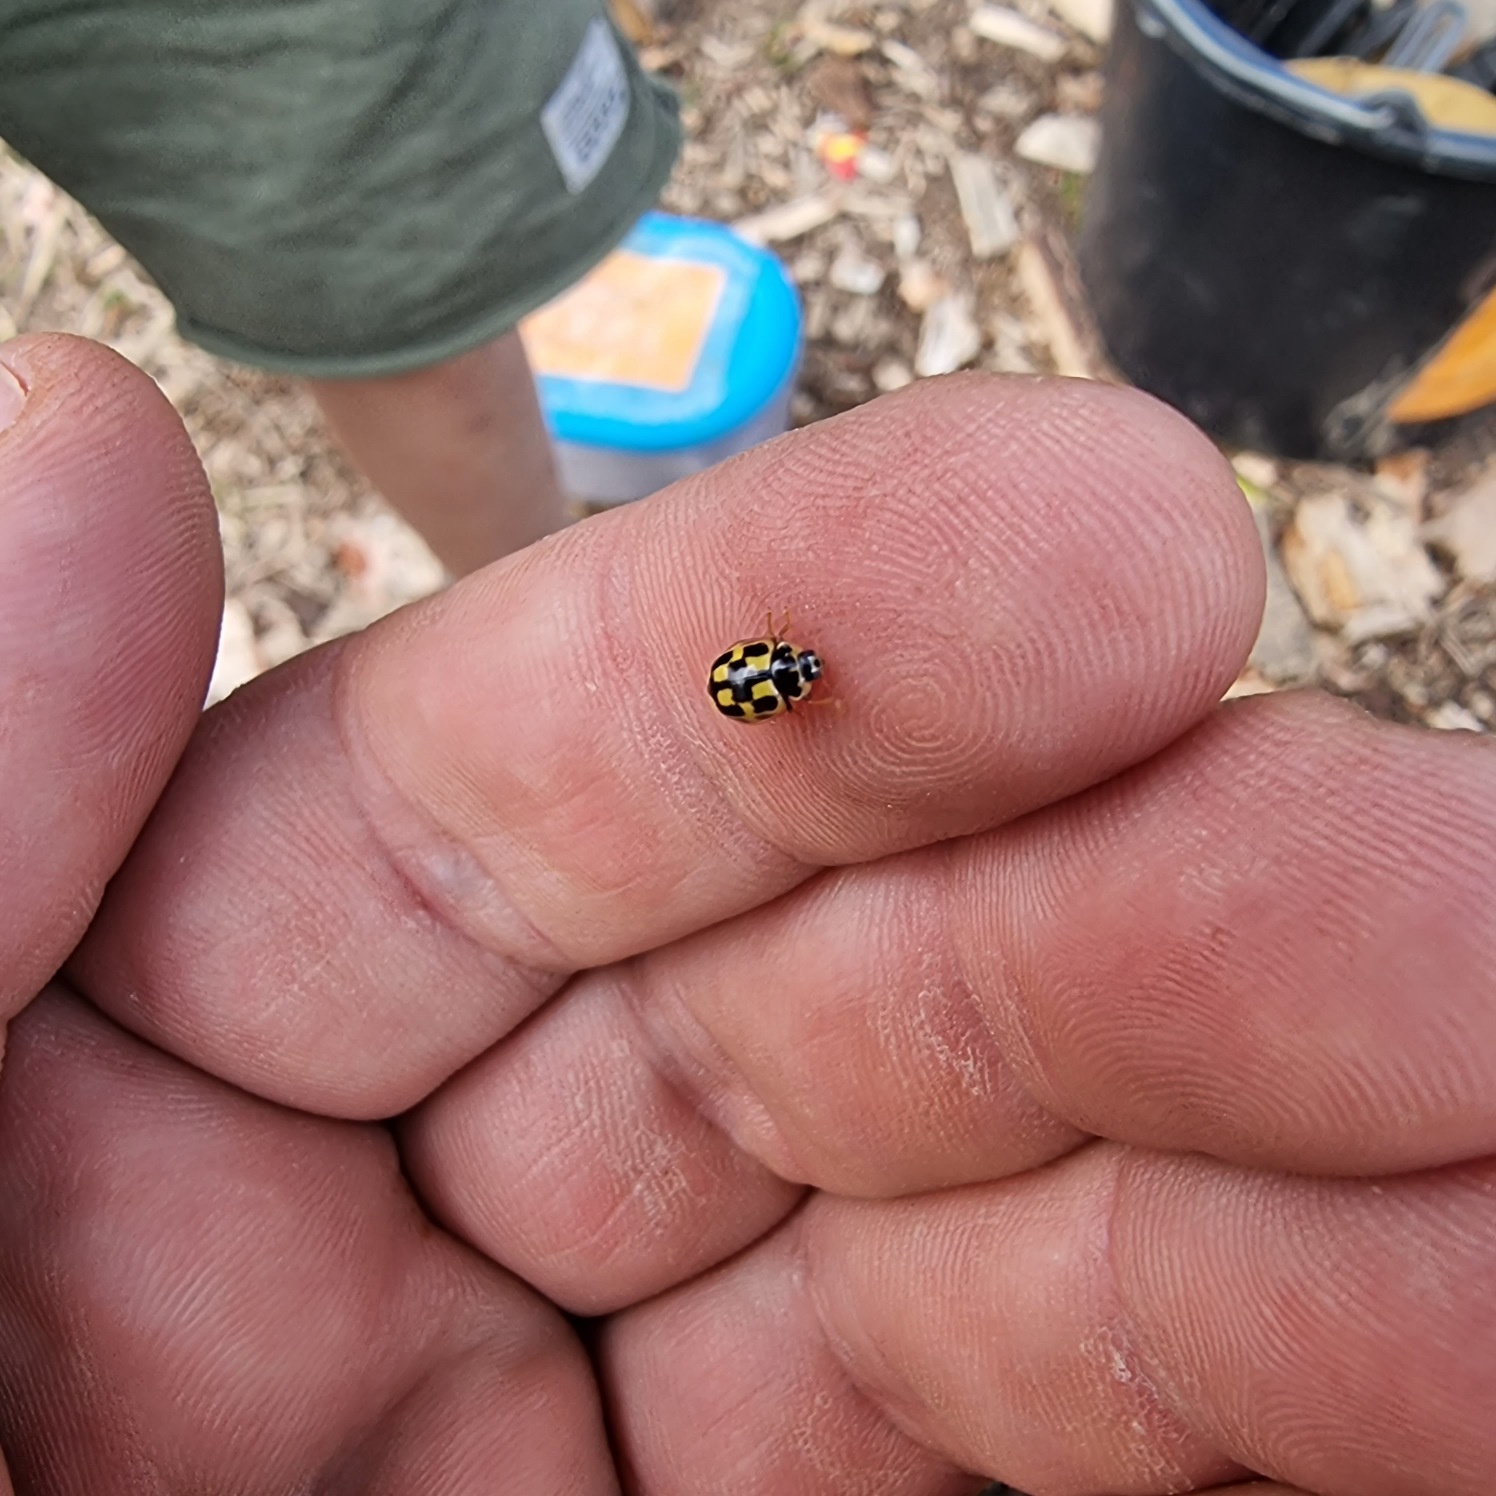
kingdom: Animalia
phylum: Arthropoda
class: Insecta
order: Coleoptera
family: Coccinellidae
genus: Propylaea
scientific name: Propylaea quatuordecimpunctata
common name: Skakbræt
